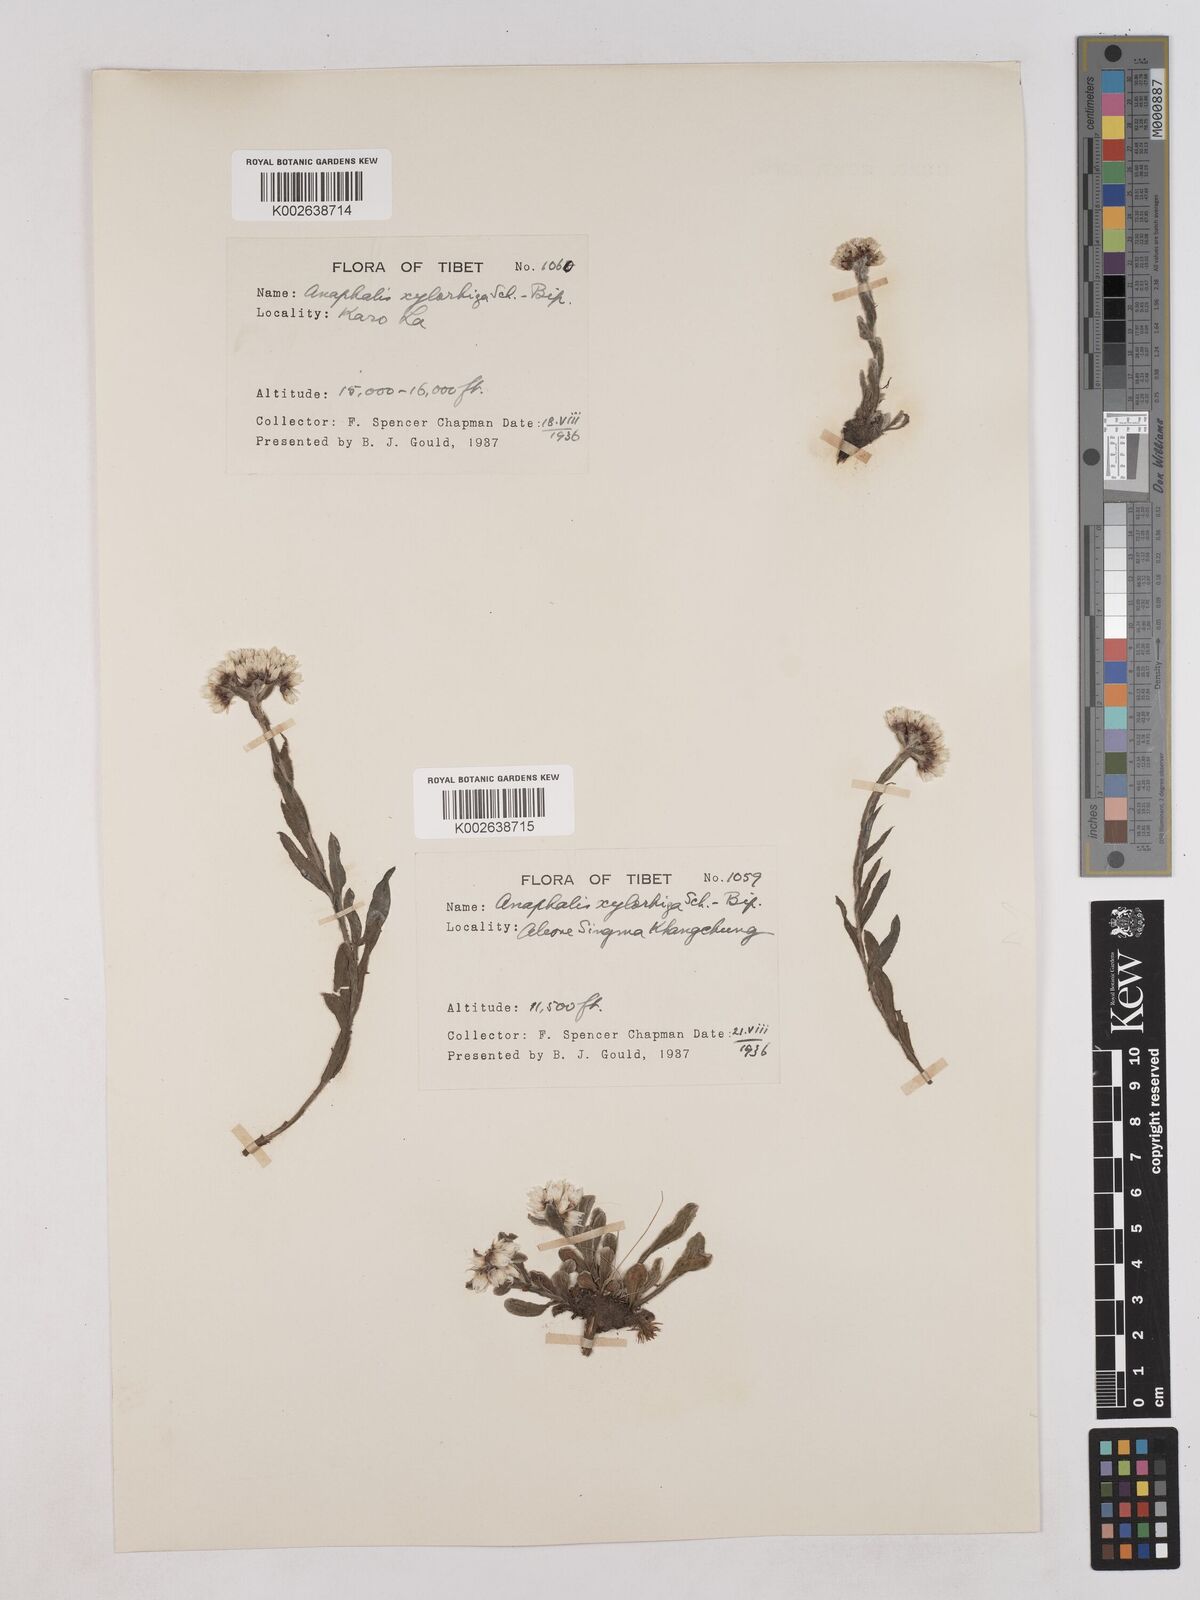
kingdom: Plantae
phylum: Tracheophyta
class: Magnoliopsida
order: Asterales
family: Asteraceae
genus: Anaphalis
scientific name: Anaphalis xylorhiza
